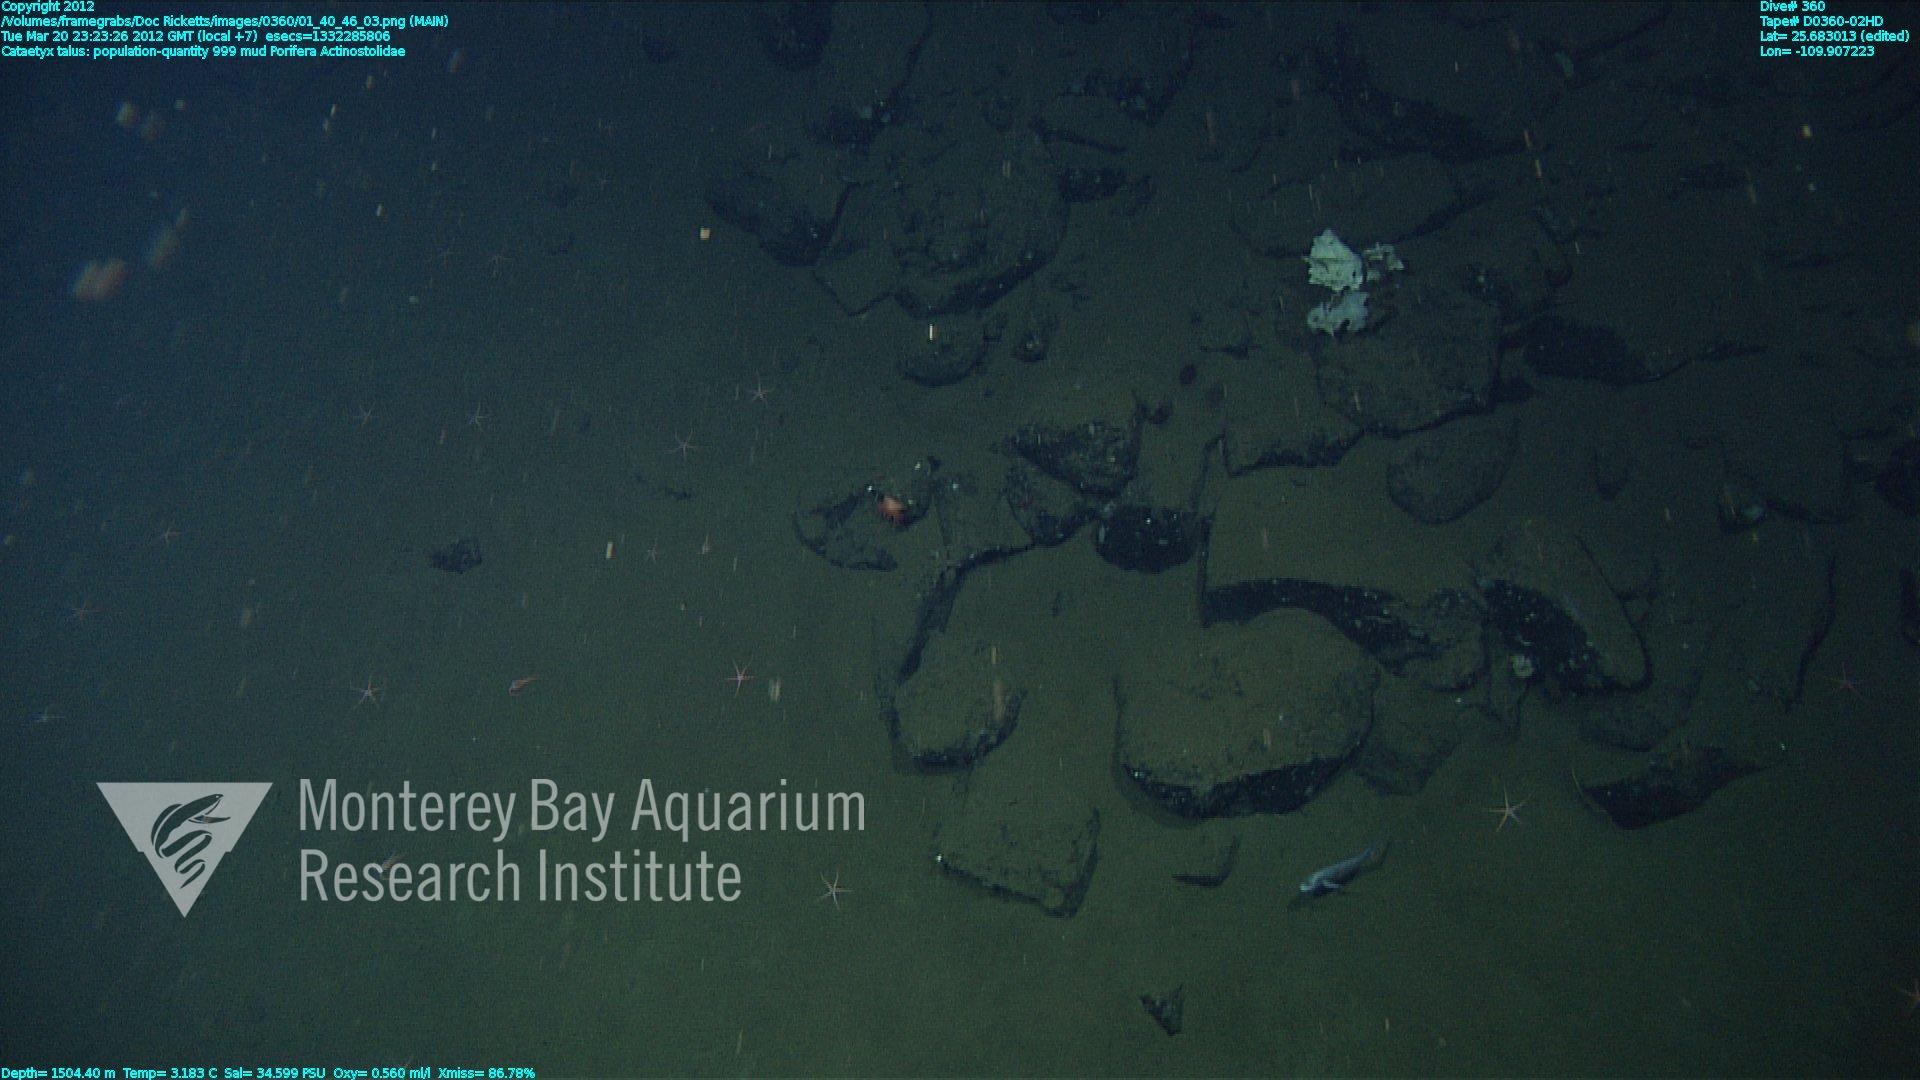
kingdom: Animalia
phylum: Porifera
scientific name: Porifera
